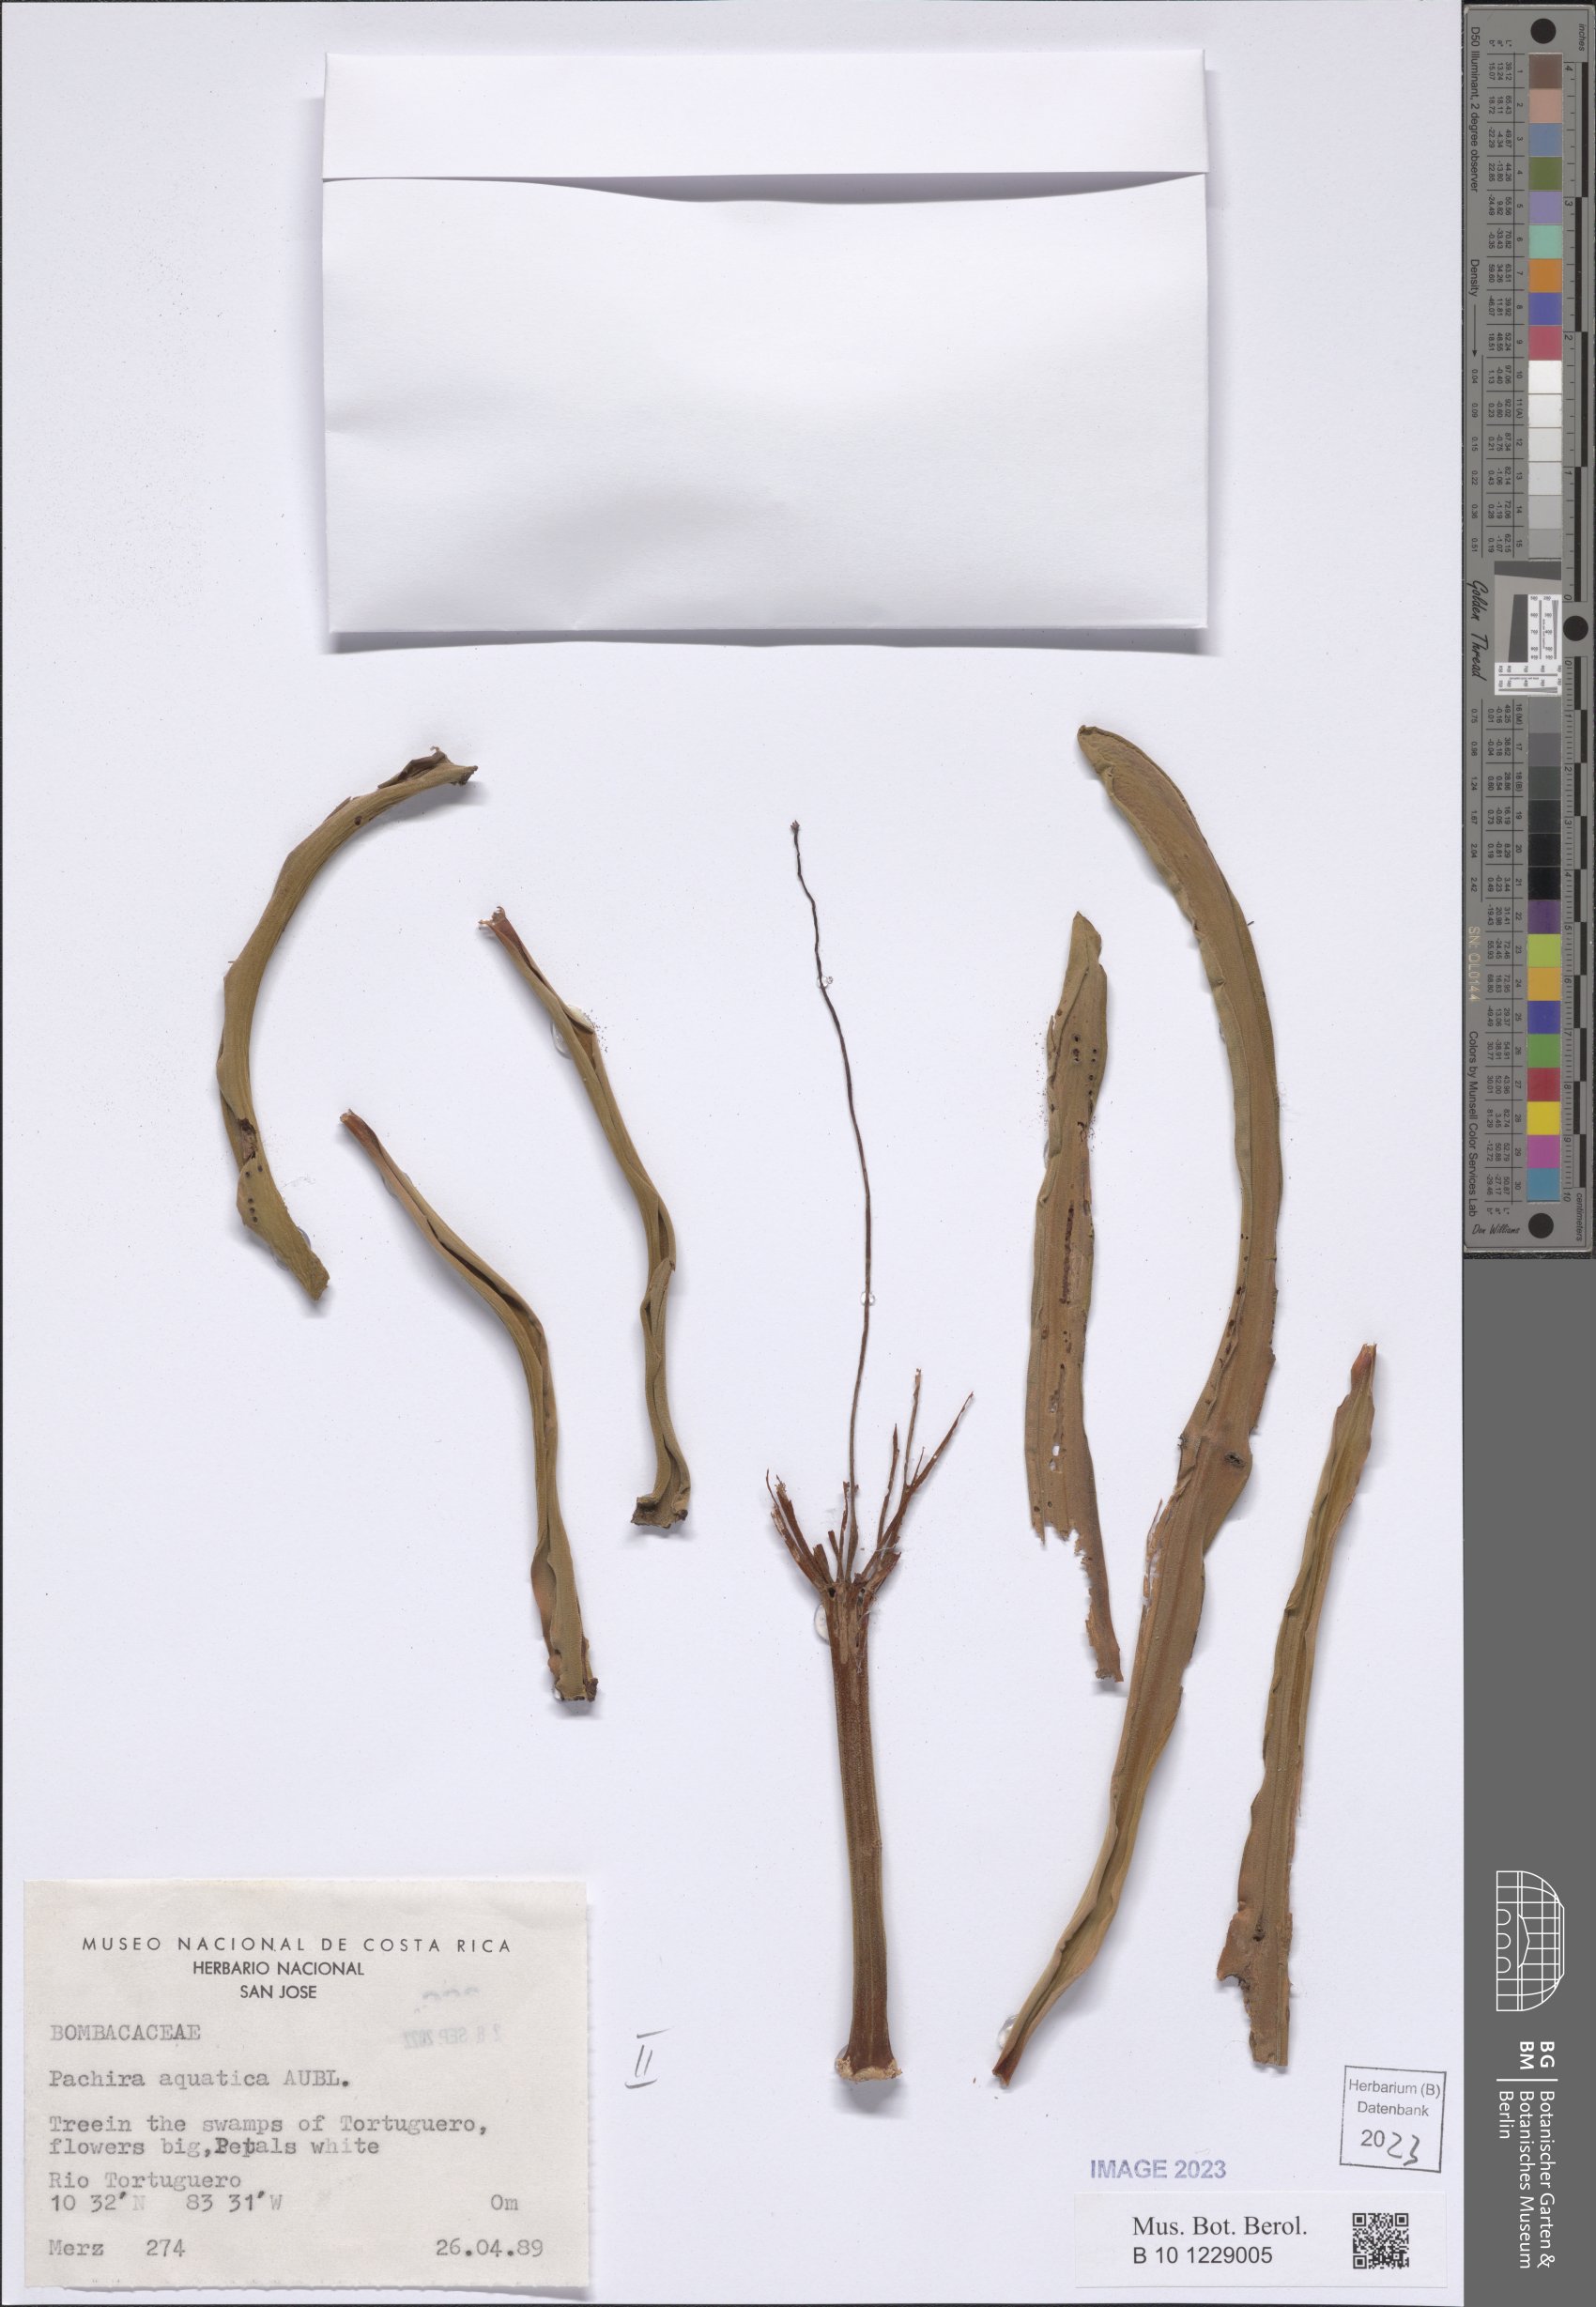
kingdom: Plantae
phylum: Tracheophyta
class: Magnoliopsida
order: Malvales
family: Malvaceae
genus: Pachira
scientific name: Pachira aquatica
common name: Provision-tree
